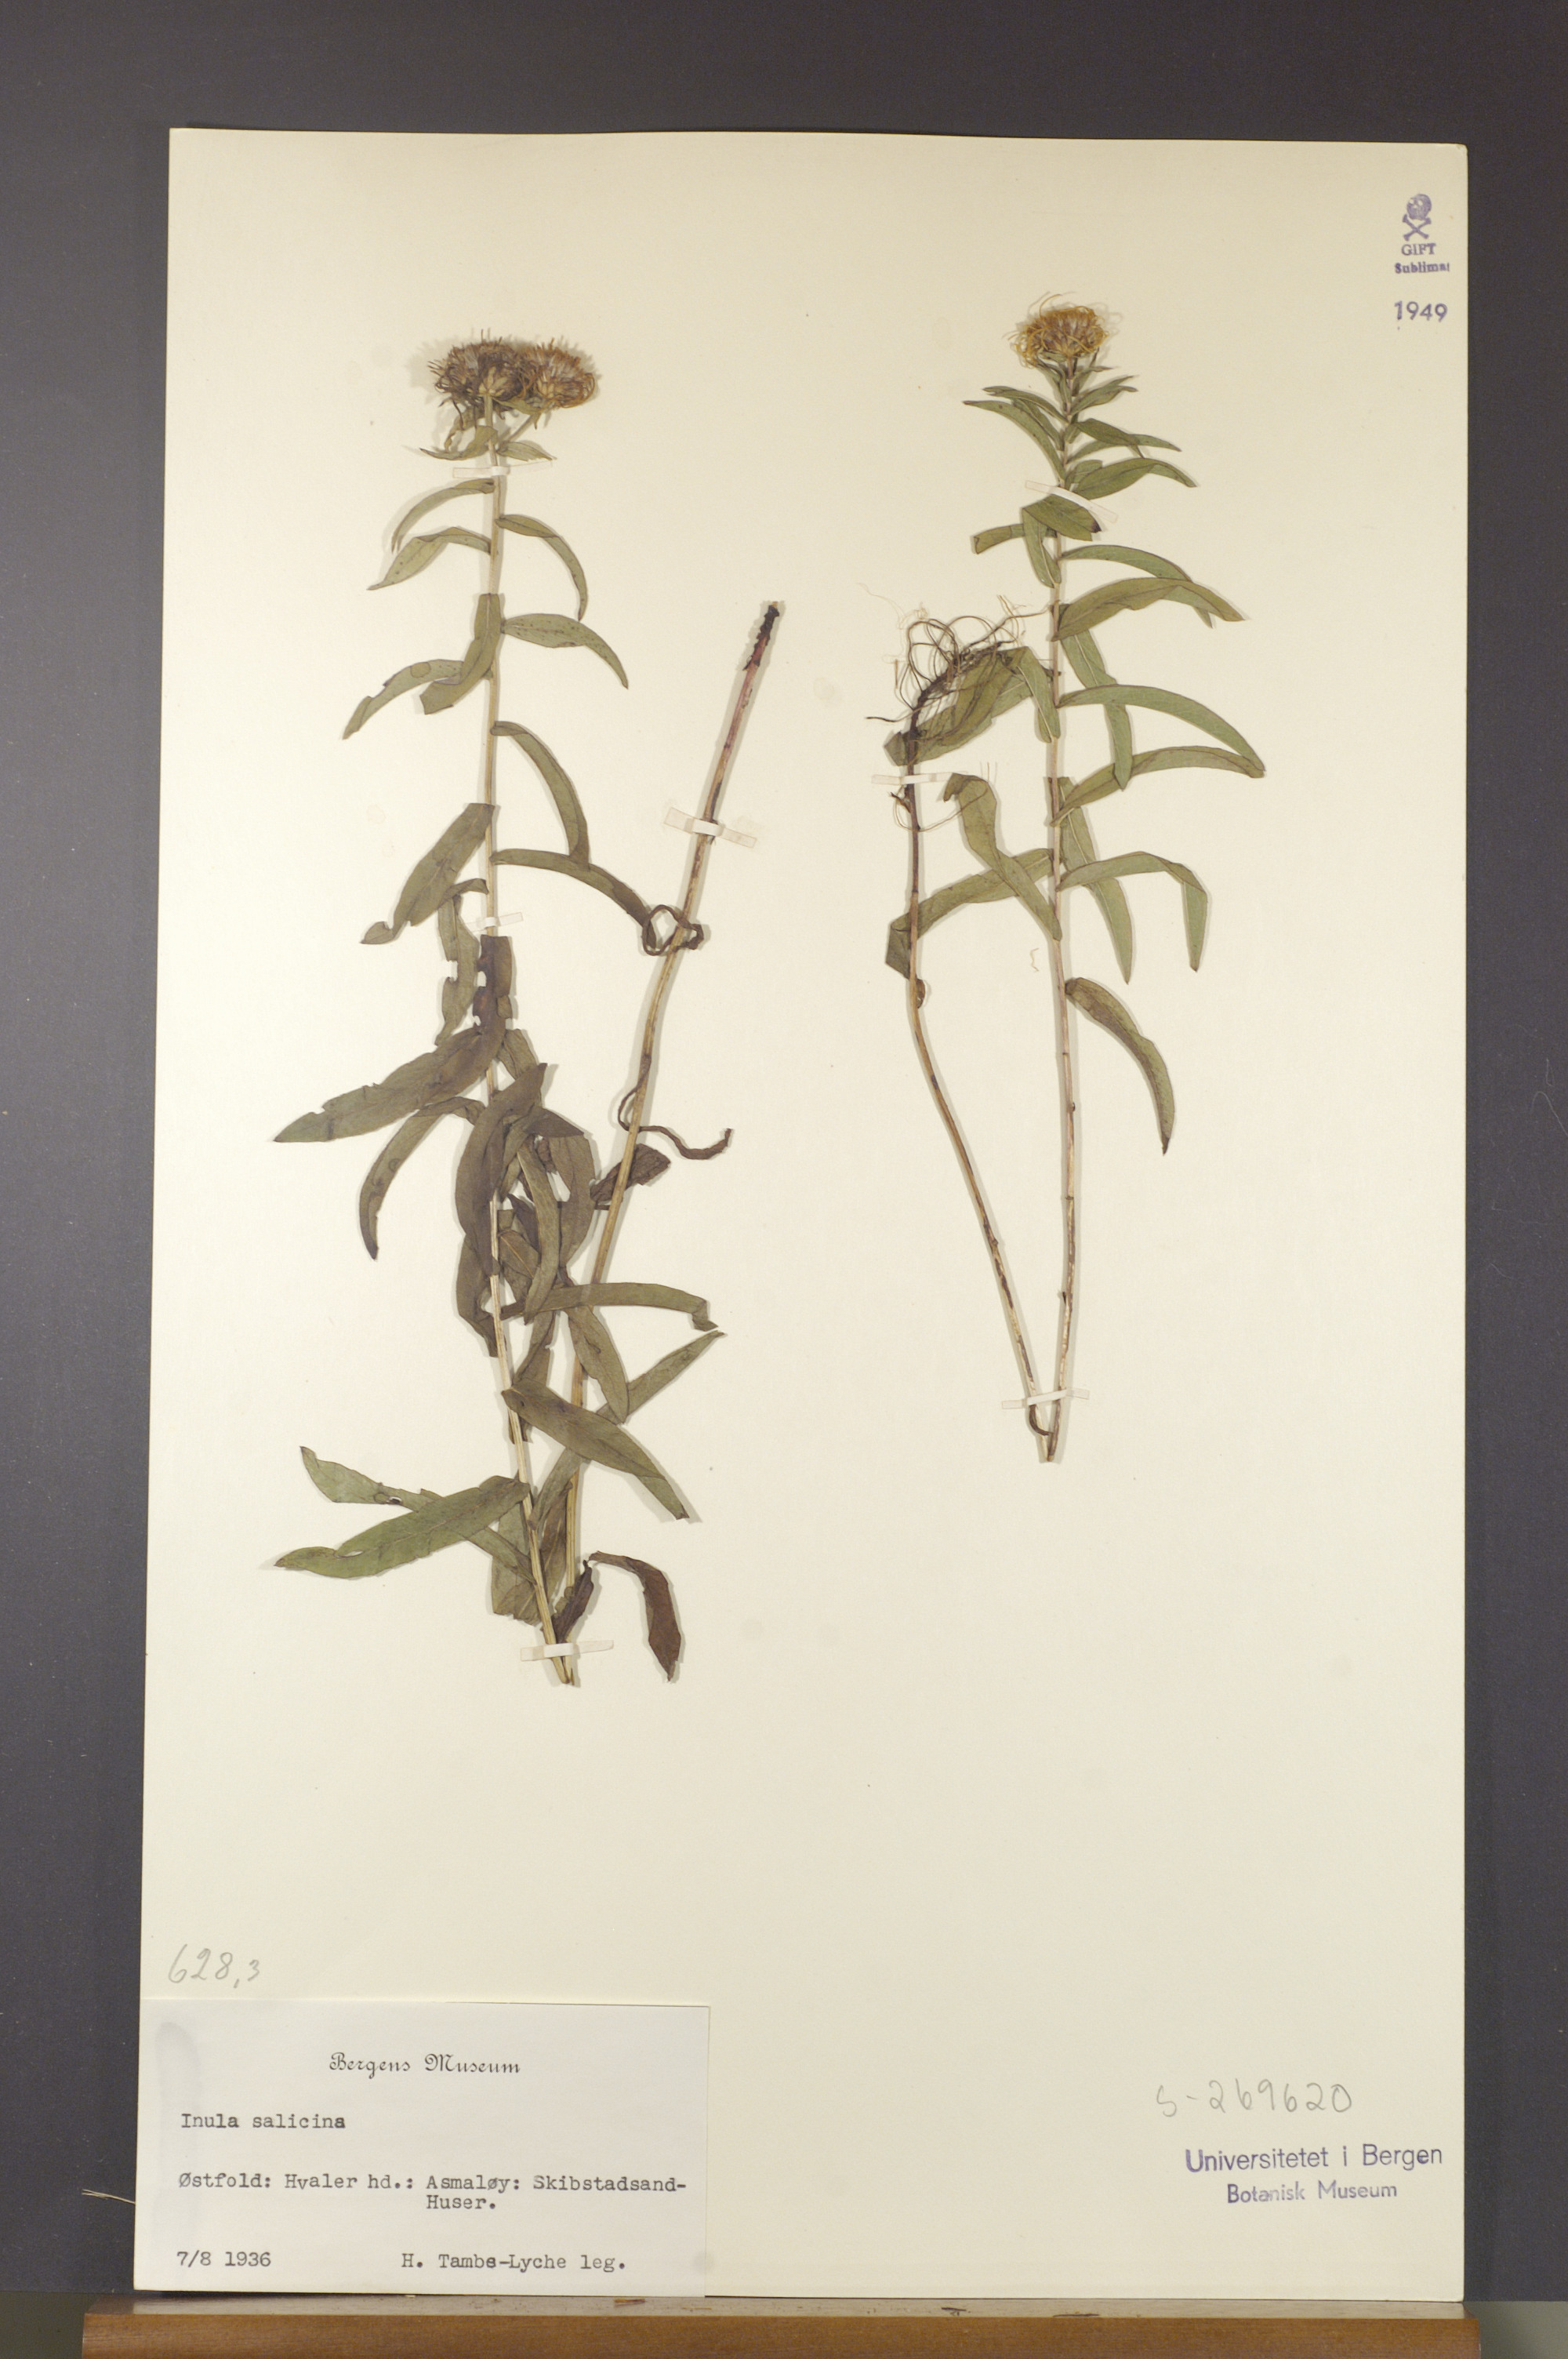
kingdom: Plantae
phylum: Tracheophyta
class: Magnoliopsida
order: Asterales
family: Asteraceae
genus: Pentanema
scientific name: Pentanema salicinum
